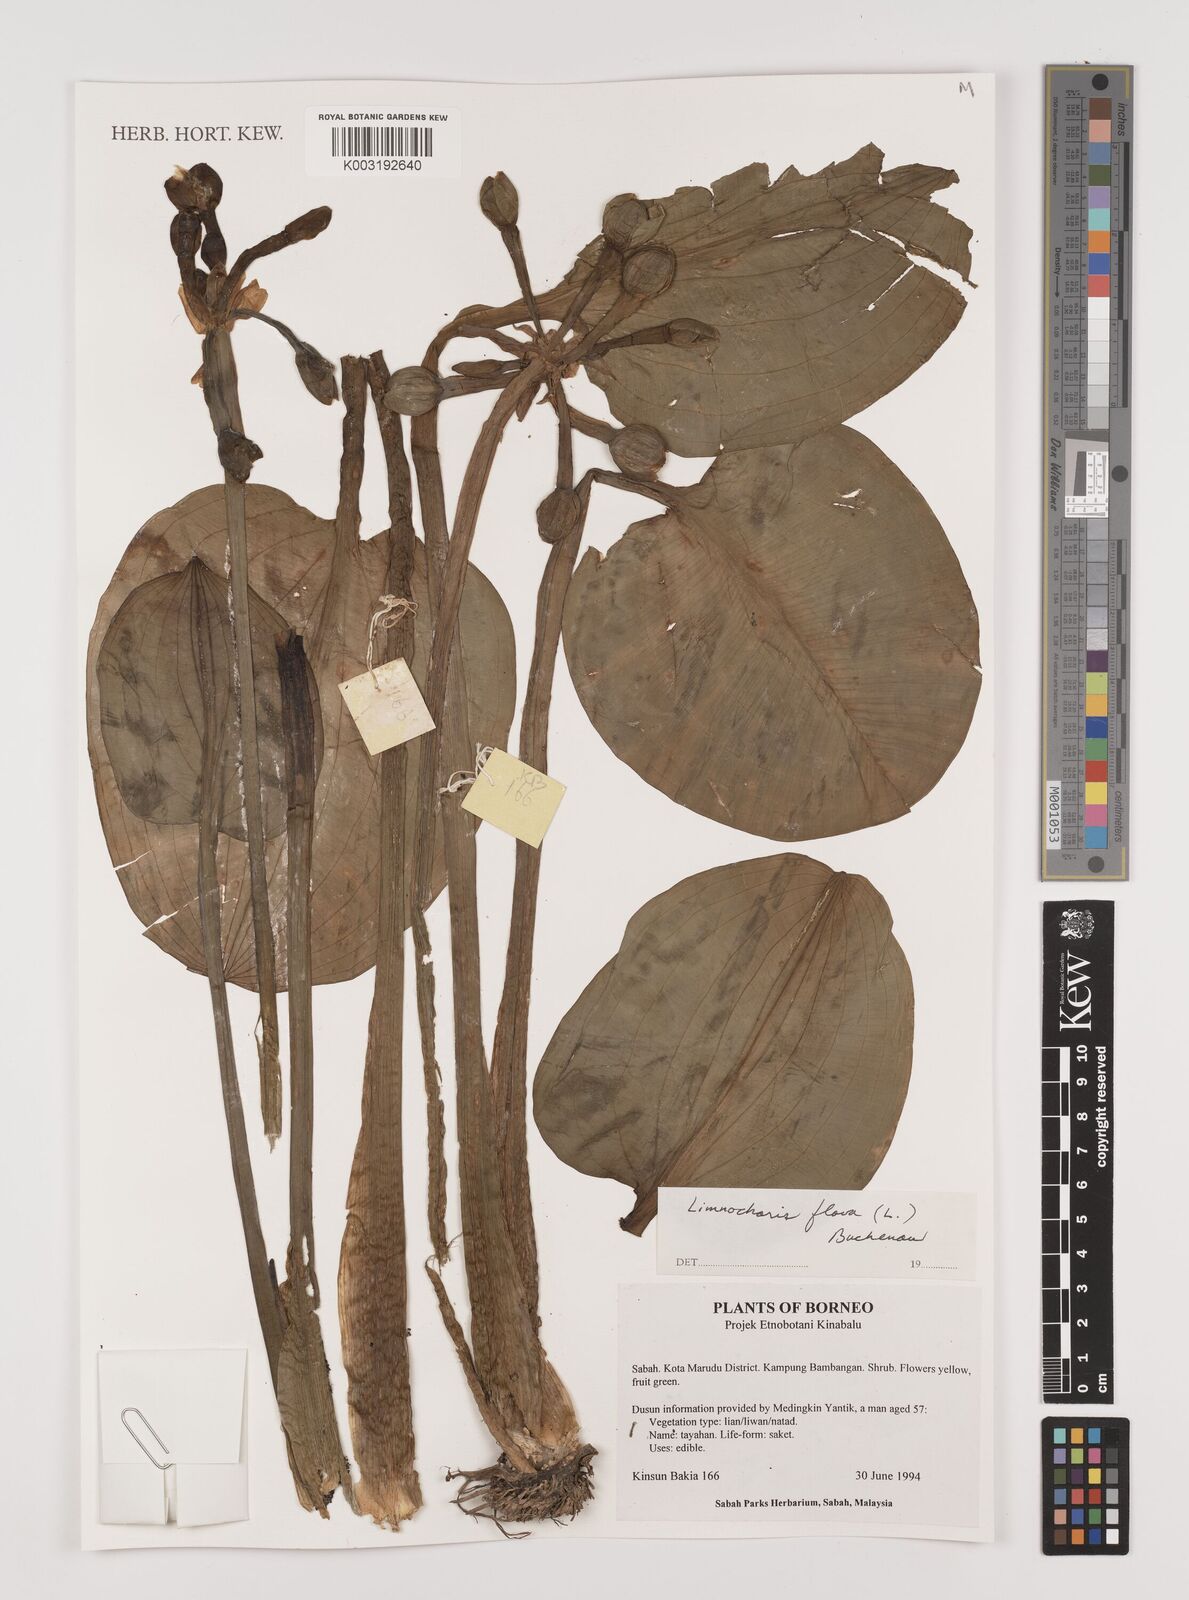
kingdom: Plantae
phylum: Tracheophyta
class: Liliopsida
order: Alismatales
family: Alismataceae
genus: Limnocharis
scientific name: Limnocharis flava
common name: Sawah-flower-rush
